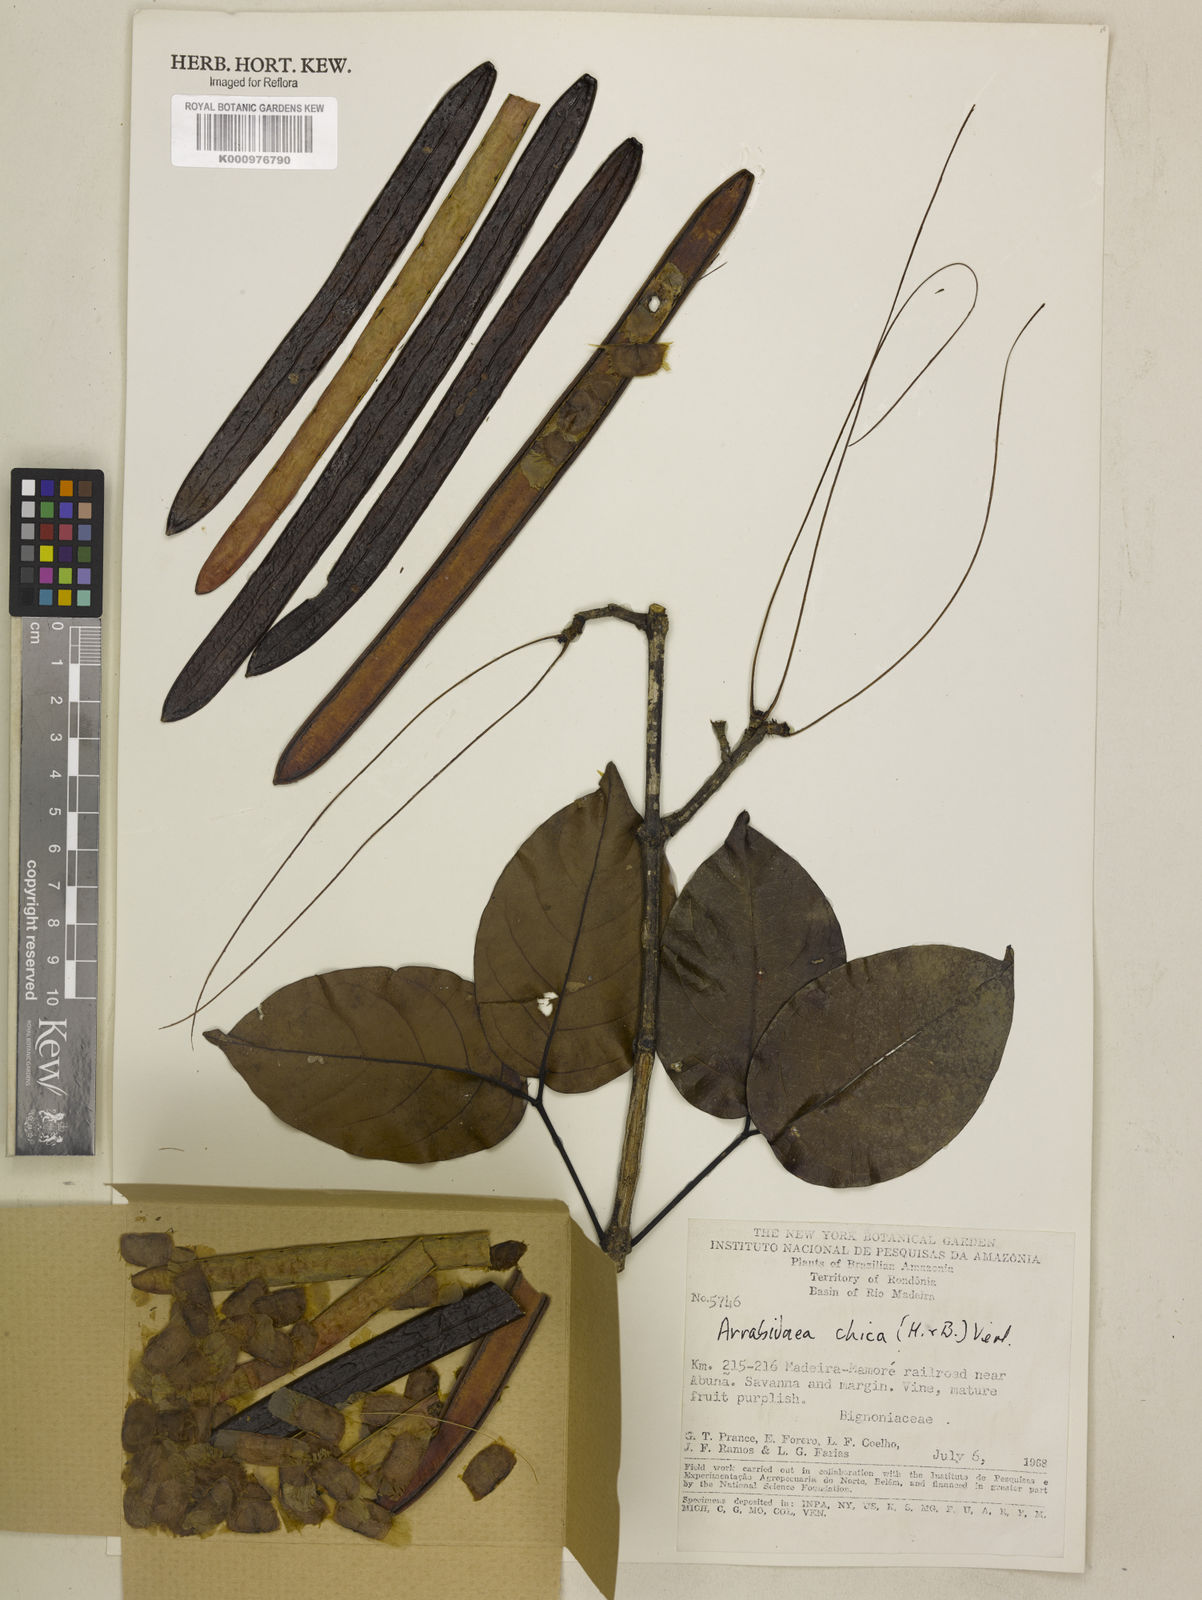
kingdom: Plantae
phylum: Tracheophyta
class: Magnoliopsida
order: Lamiales
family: Bignoniaceae
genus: Fridericia
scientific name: Fridericia chica
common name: Cricketvine
